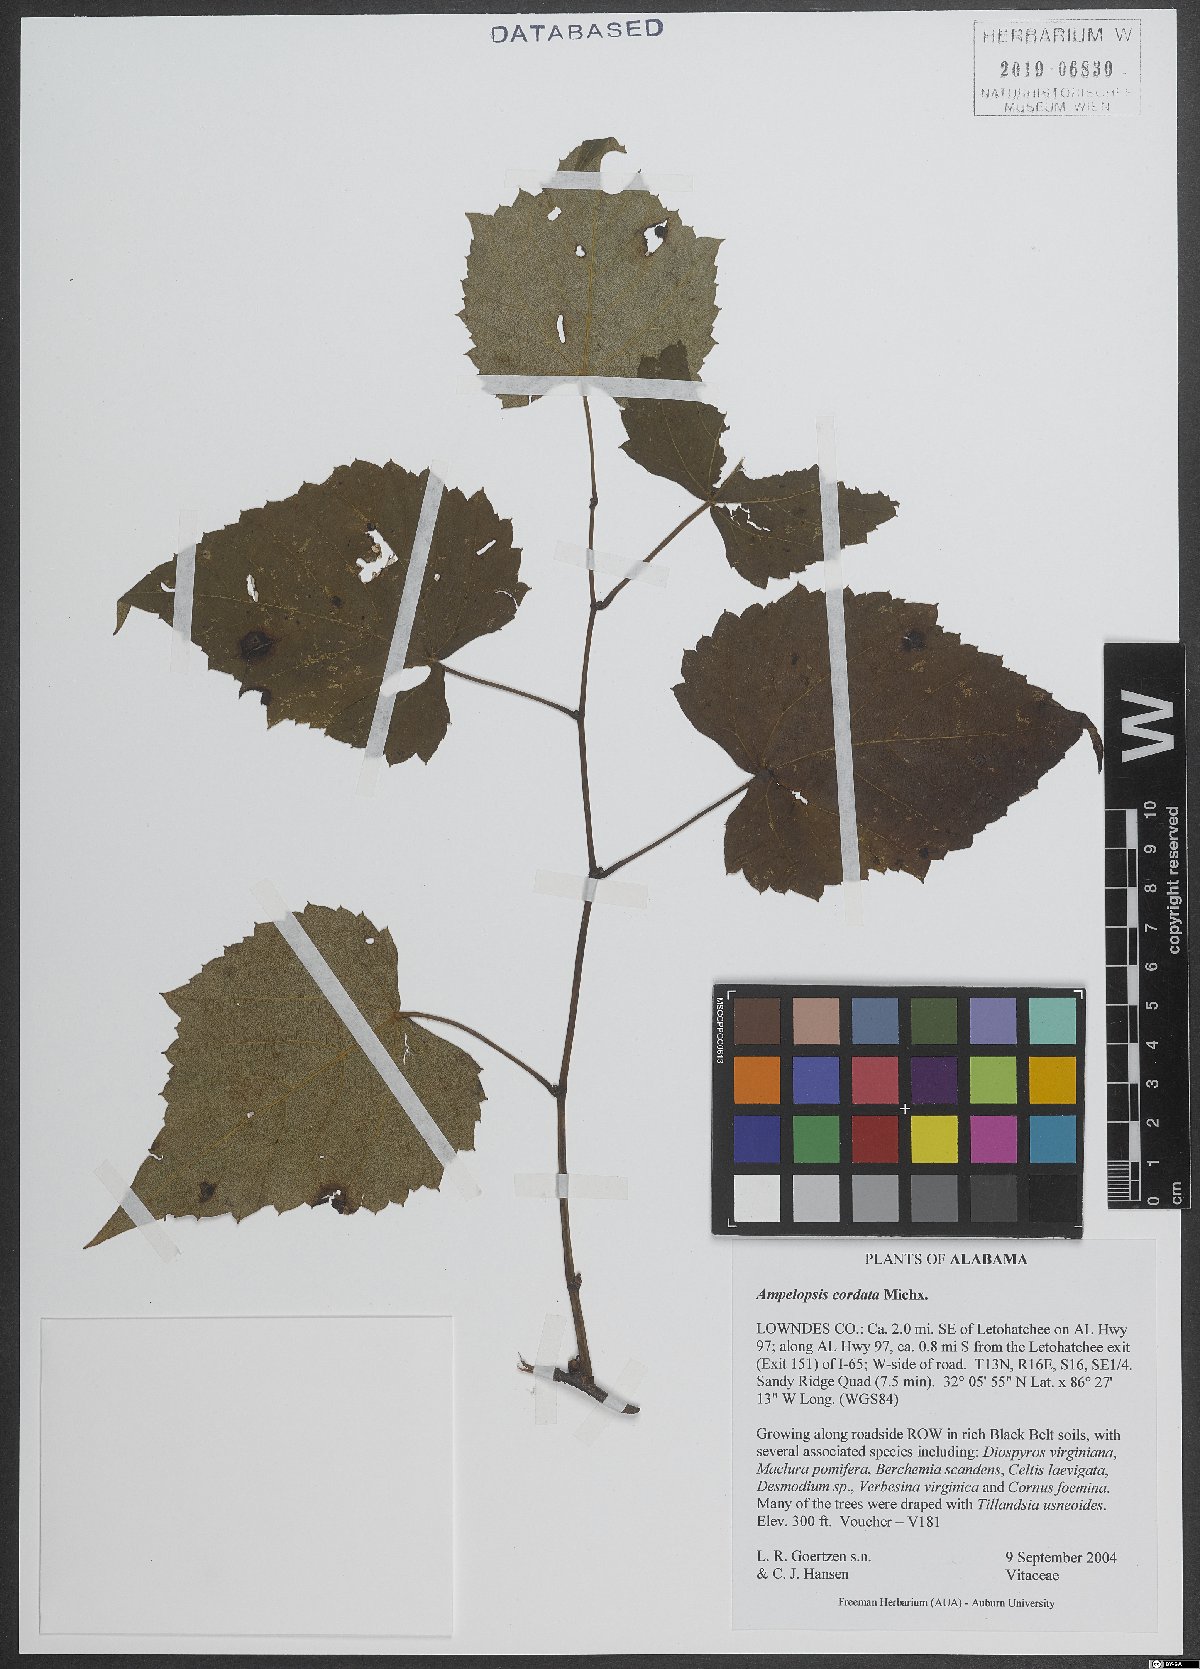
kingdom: Plantae
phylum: Tracheophyta
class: Magnoliopsida
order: Vitales
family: Vitaceae
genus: Ampelopsis
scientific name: Ampelopsis cordata
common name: Heart-leaf ampelopsis
